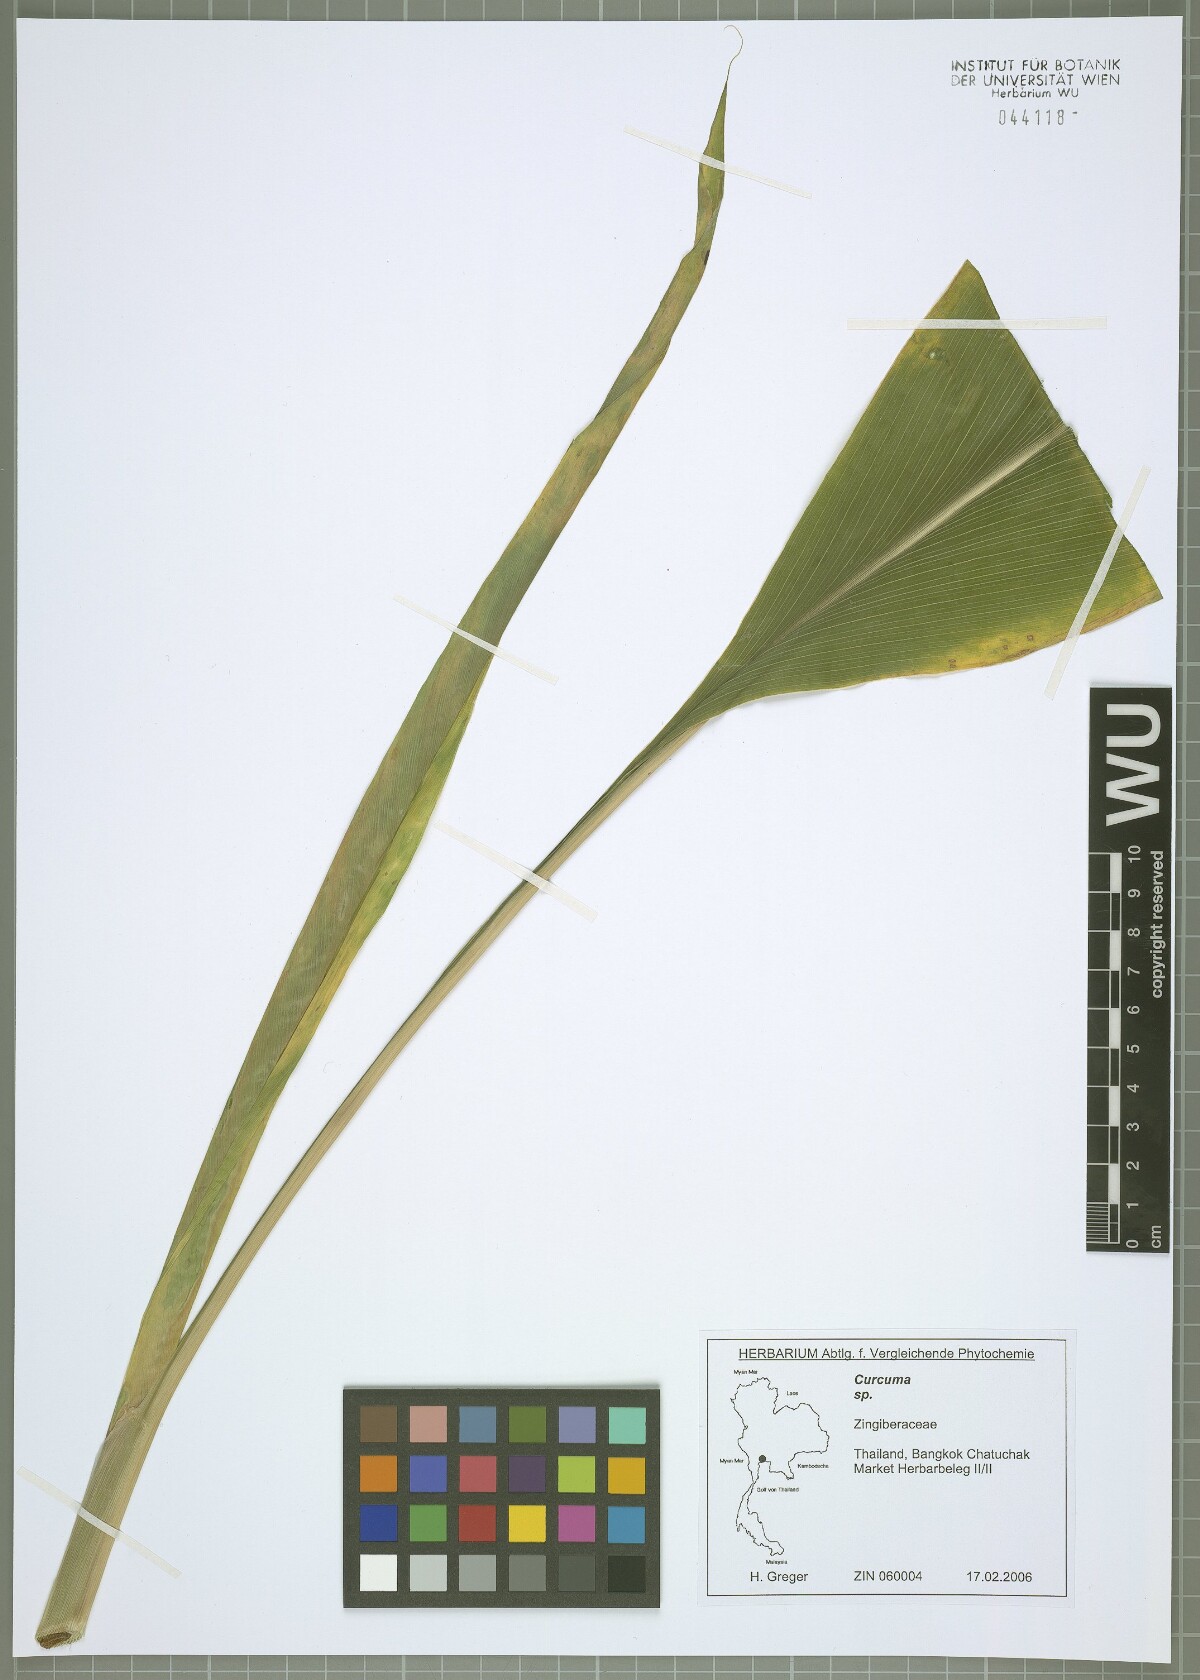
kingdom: Plantae
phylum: Tracheophyta
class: Liliopsida
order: Zingiberales
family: Zingiberaceae
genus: Curcuma
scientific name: Curcuma
